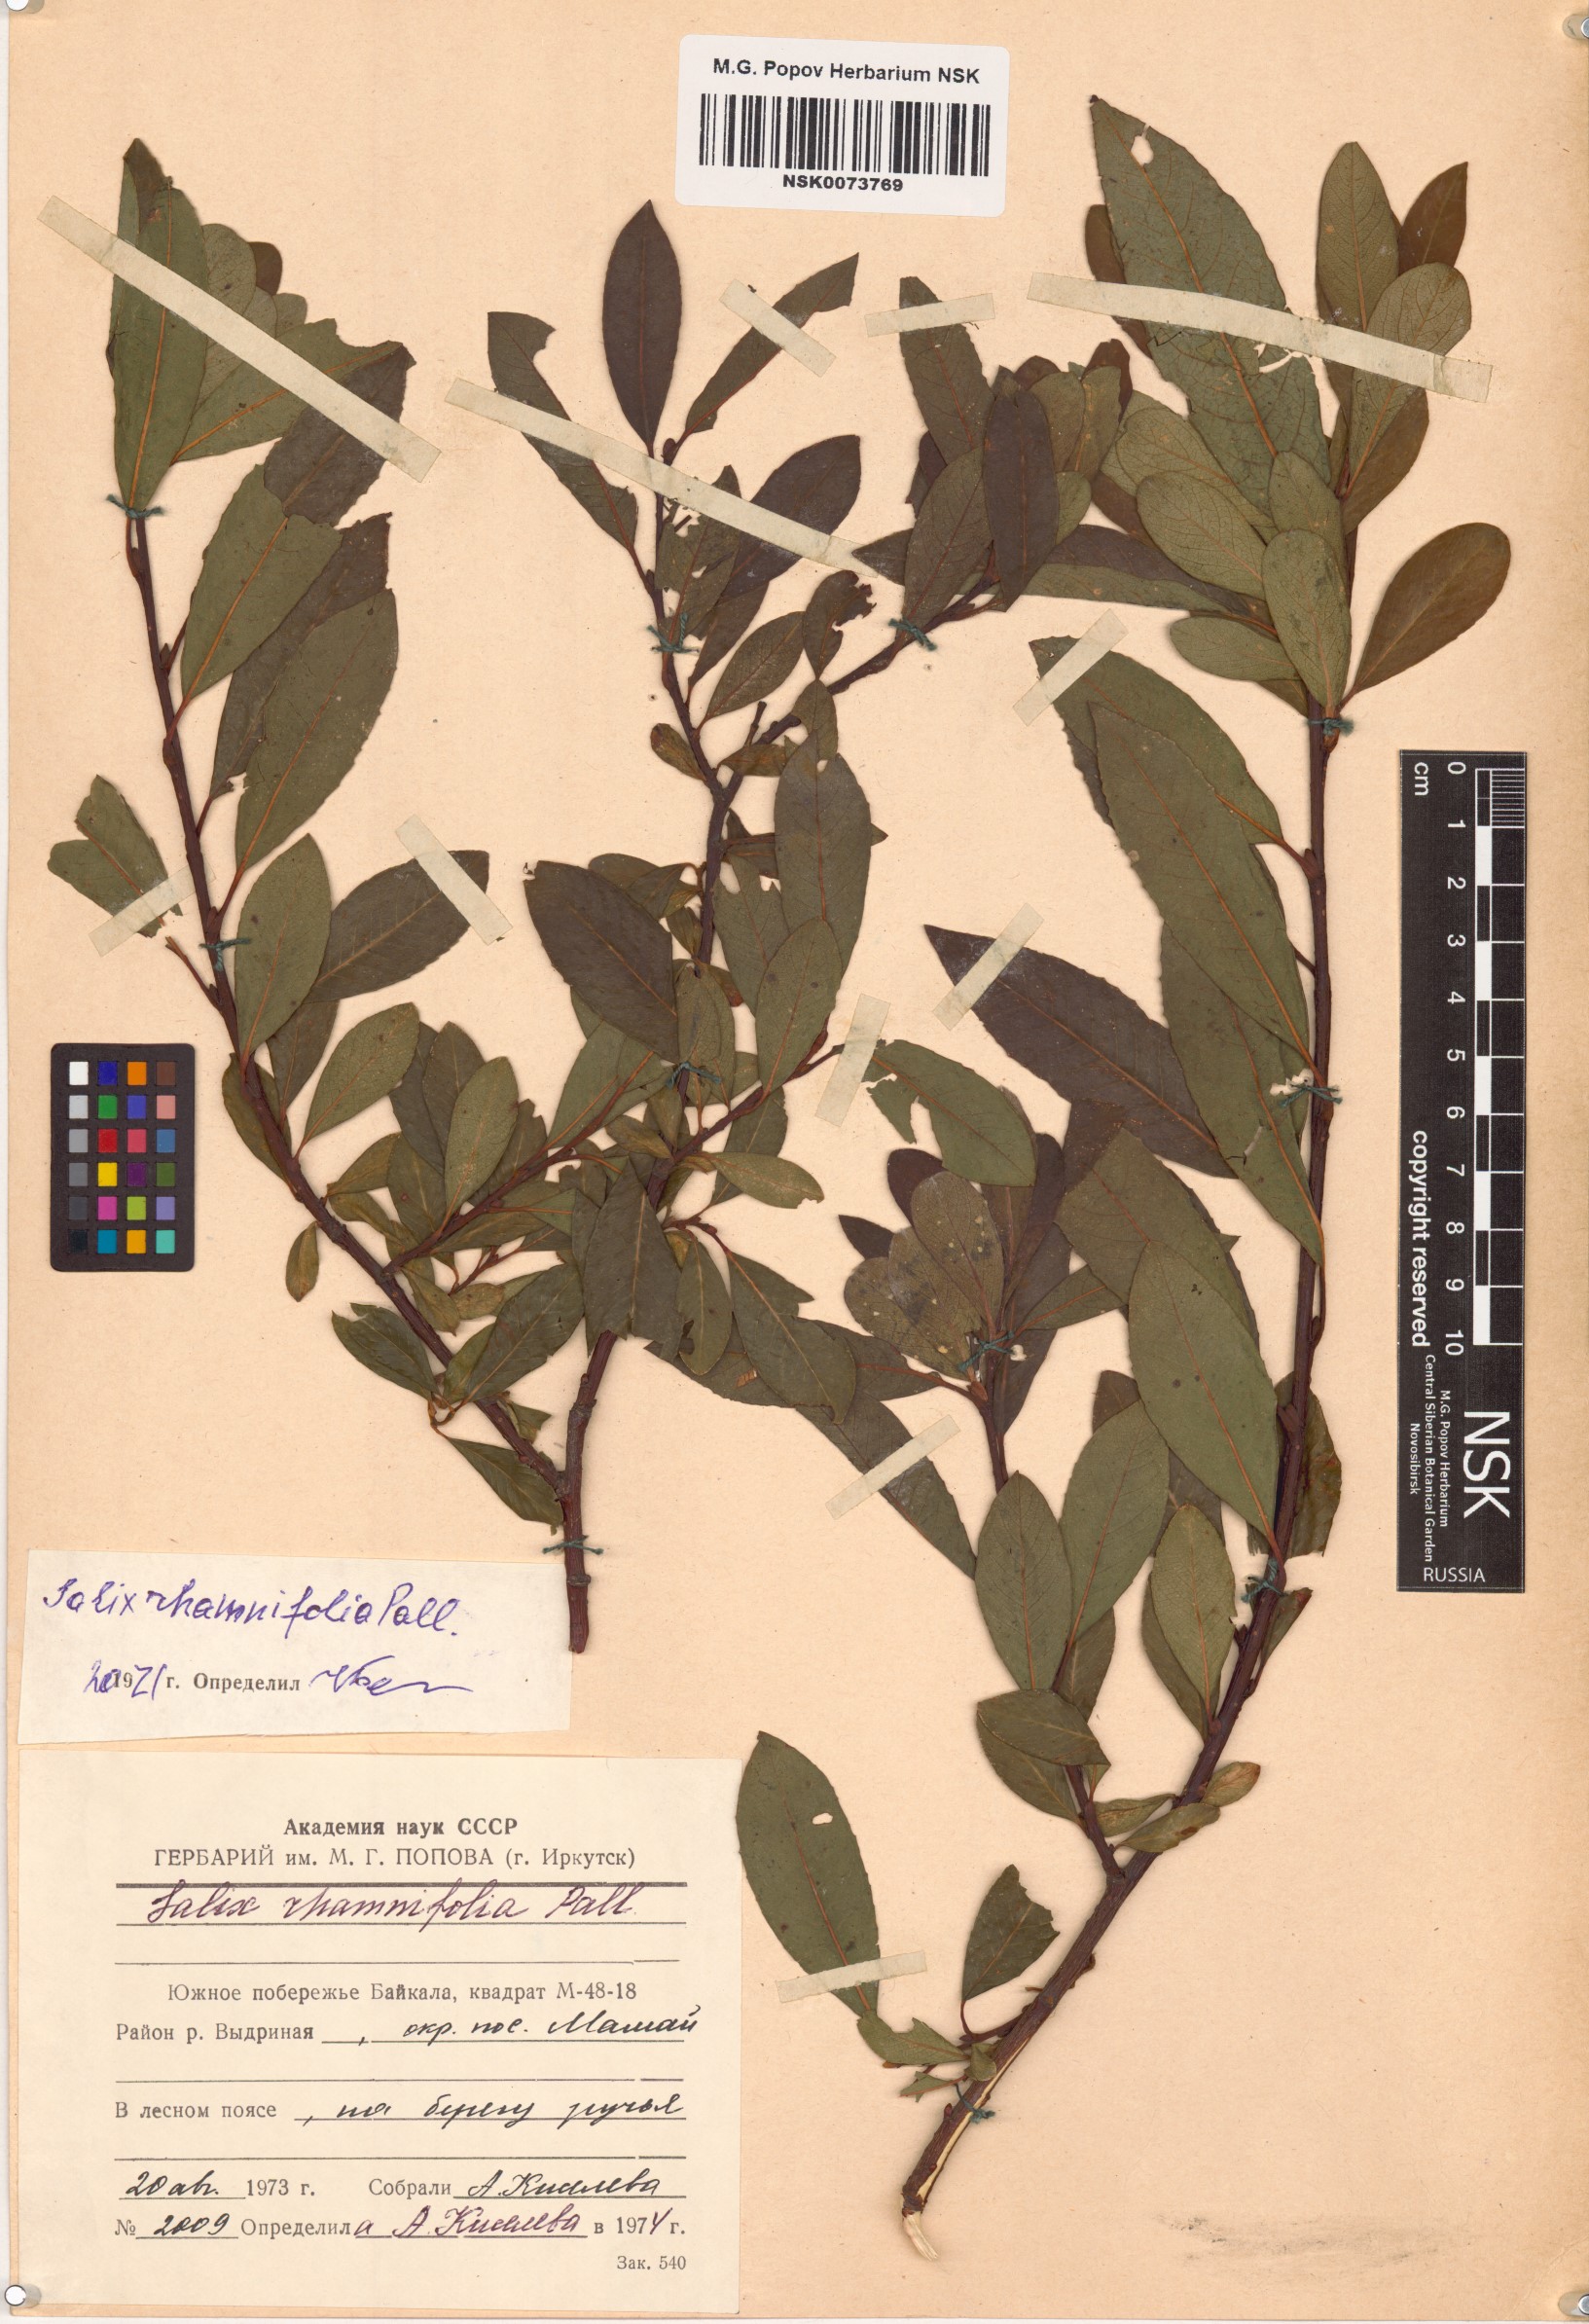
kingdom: Plantae
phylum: Tracheophyta
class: Magnoliopsida
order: Malpighiales
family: Salicaceae
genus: Salix
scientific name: Salix rhamnifolia
